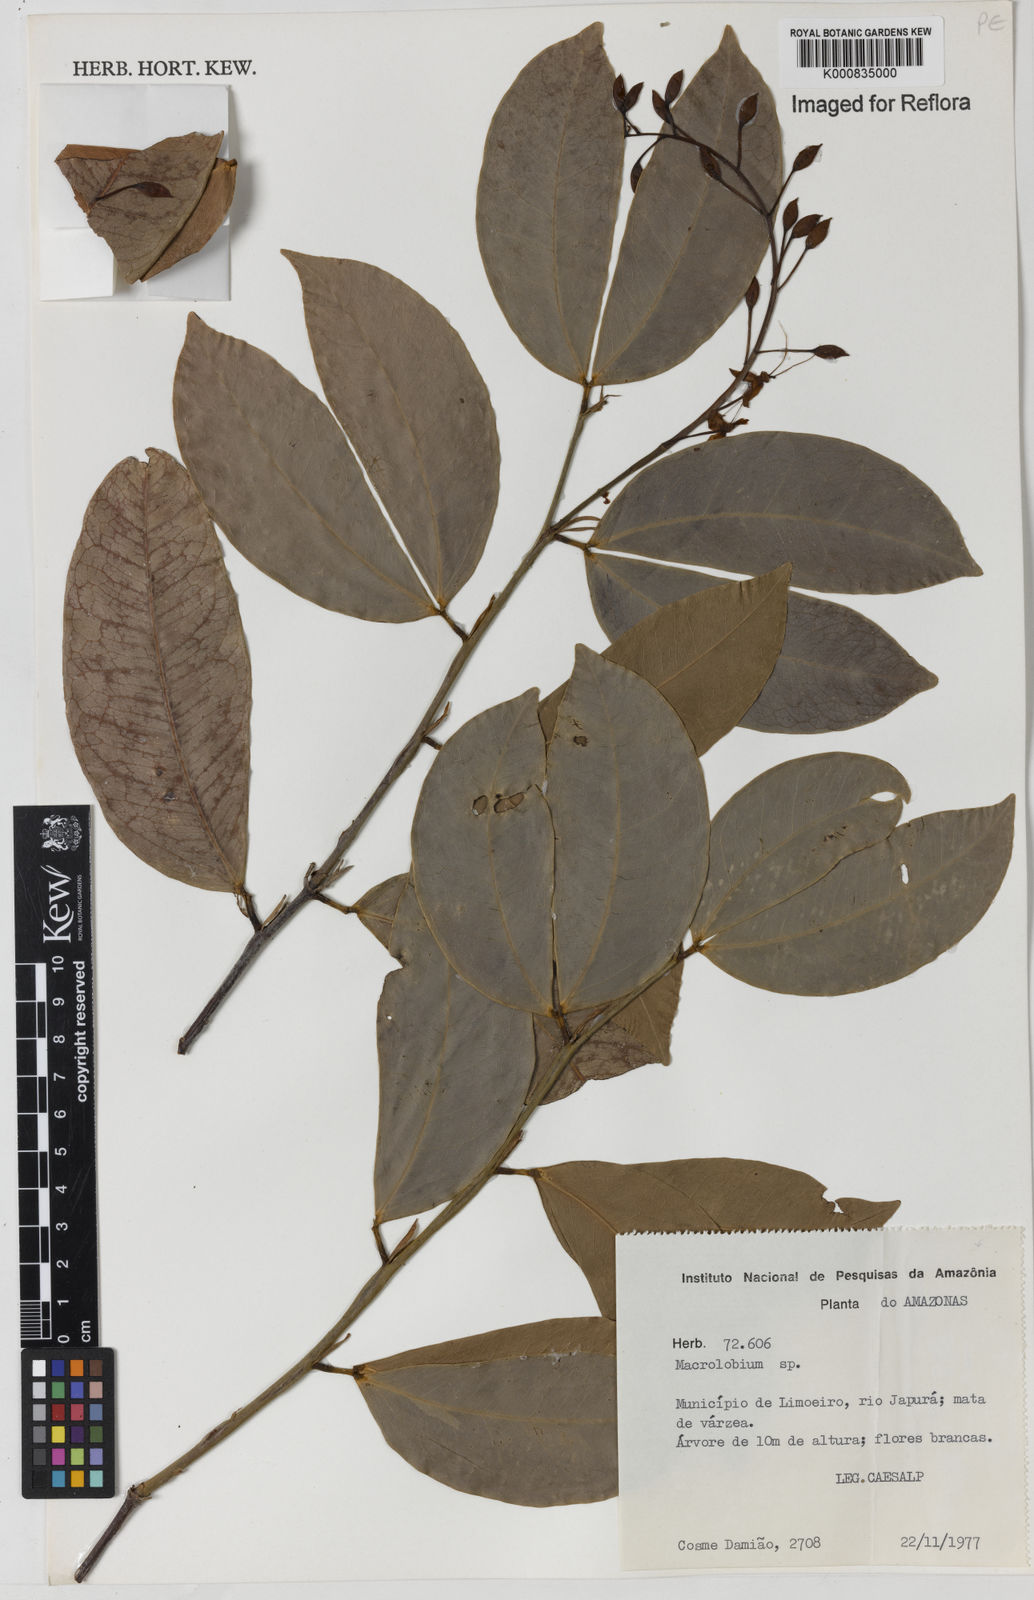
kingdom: Plantae
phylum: Tracheophyta
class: Magnoliopsida
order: Fabales
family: Fabaceae
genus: Macrolobium
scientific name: Macrolobium
